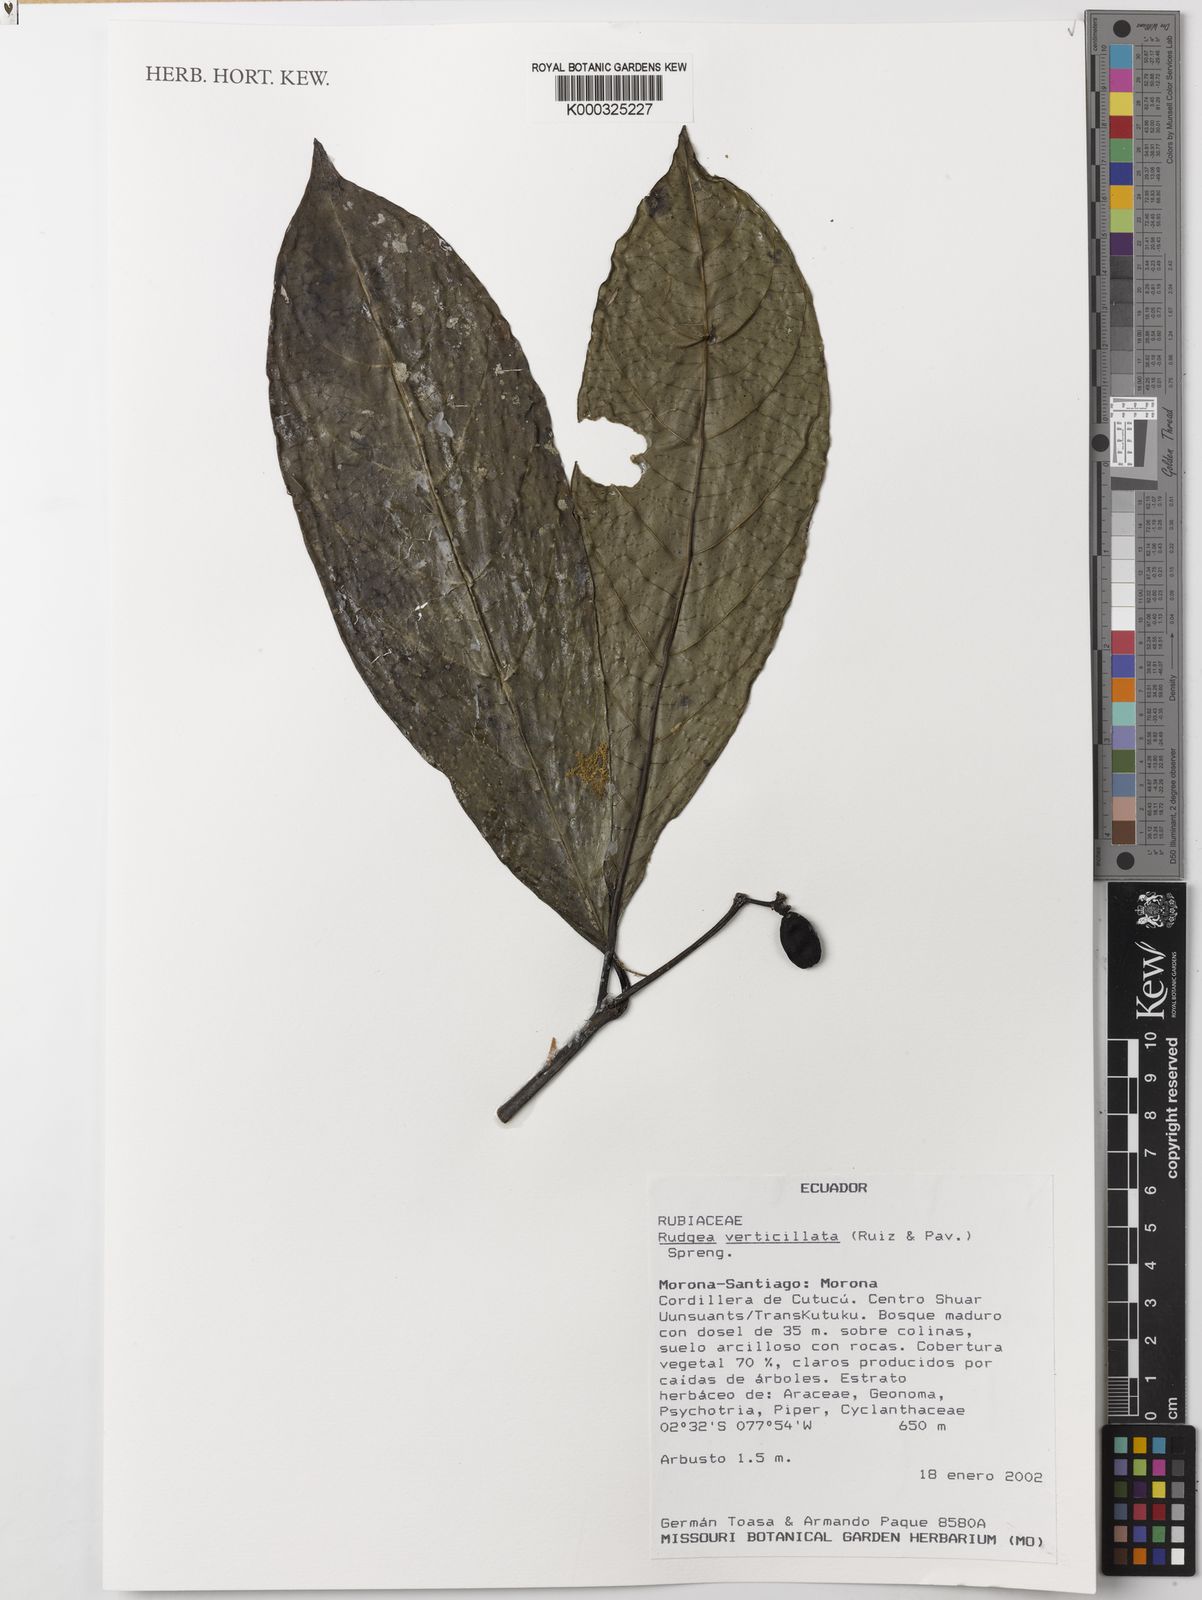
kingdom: Plantae
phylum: Tracheophyta
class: Magnoliopsida
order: Gentianales
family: Rubiaceae
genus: Rudgea
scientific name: Rudgea verticillata
